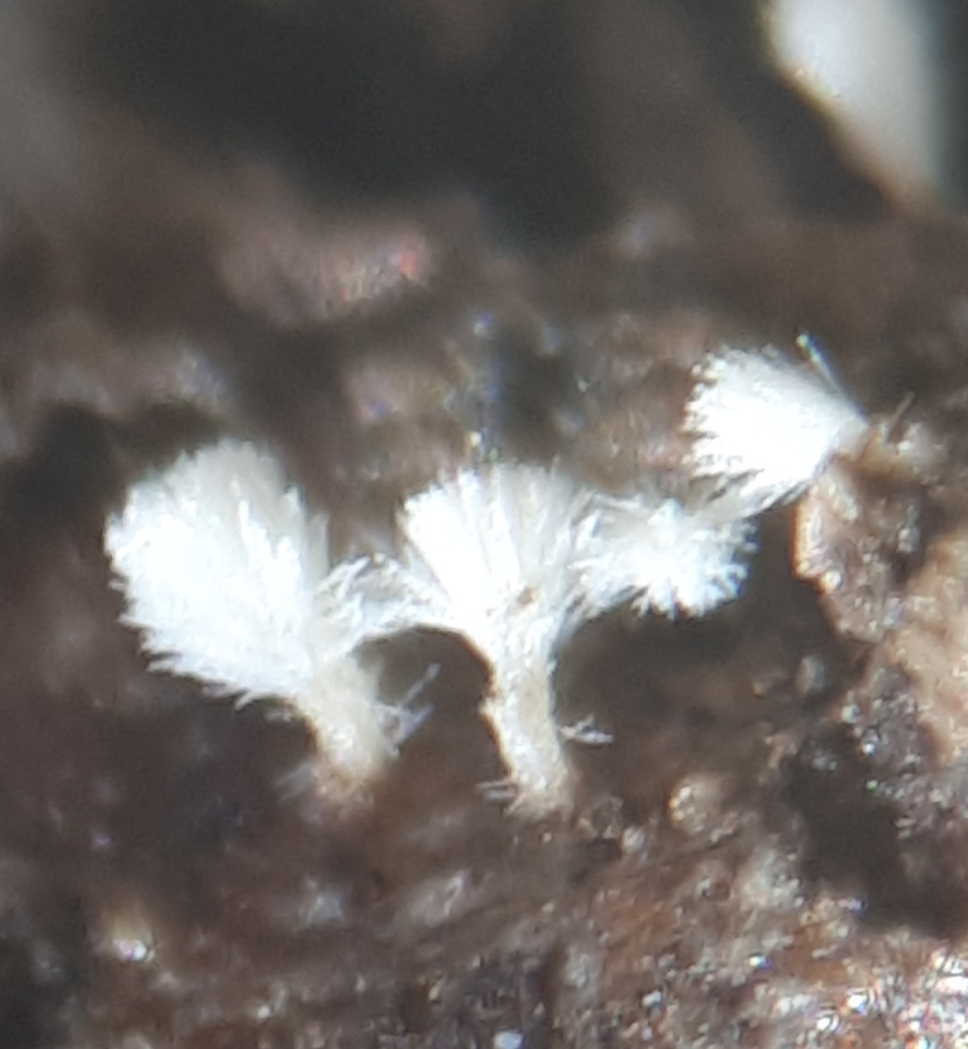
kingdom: Fungi
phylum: Ascomycota
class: Leotiomycetes
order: Helotiales
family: Lachnaceae
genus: Lachnum
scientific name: Lachnum virgineum
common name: jomfru-frynseskive
